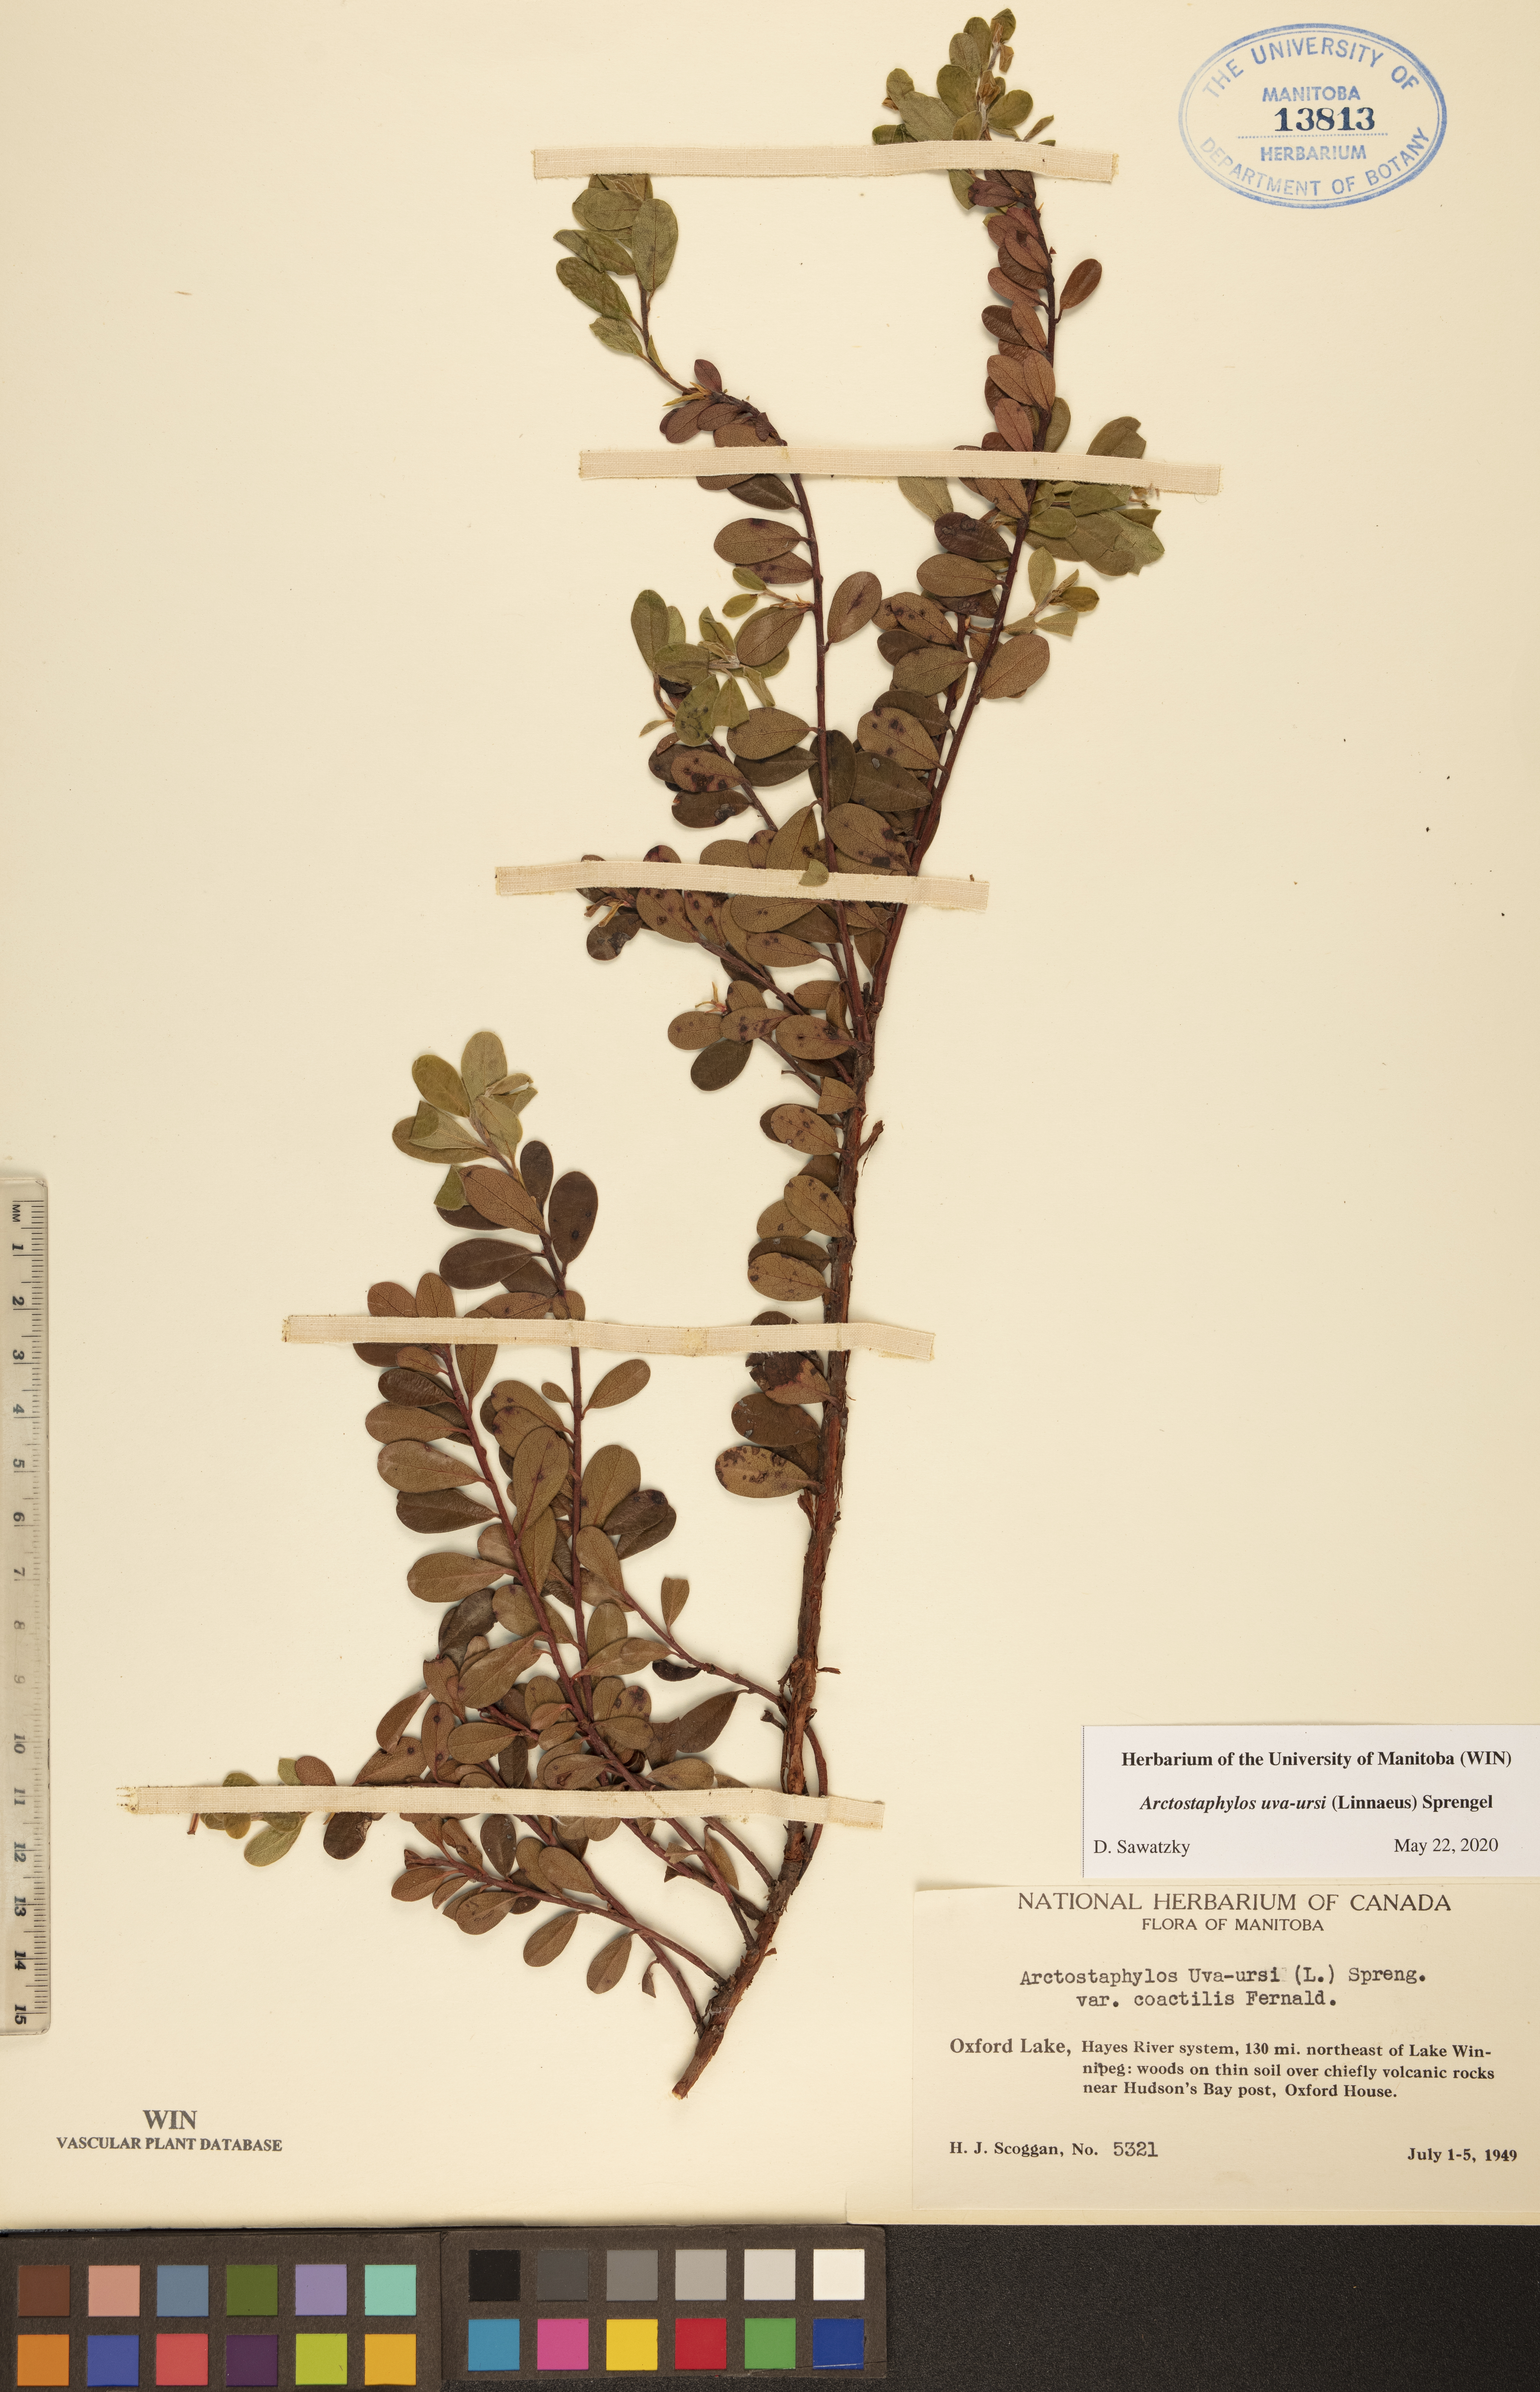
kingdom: Plantae
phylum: Tracheophyta
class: Magnoliopsida
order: Ericales
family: Ericaceae
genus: Arctostaphylos
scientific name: Arctostaphylos uva-ursi
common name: Bearberry
